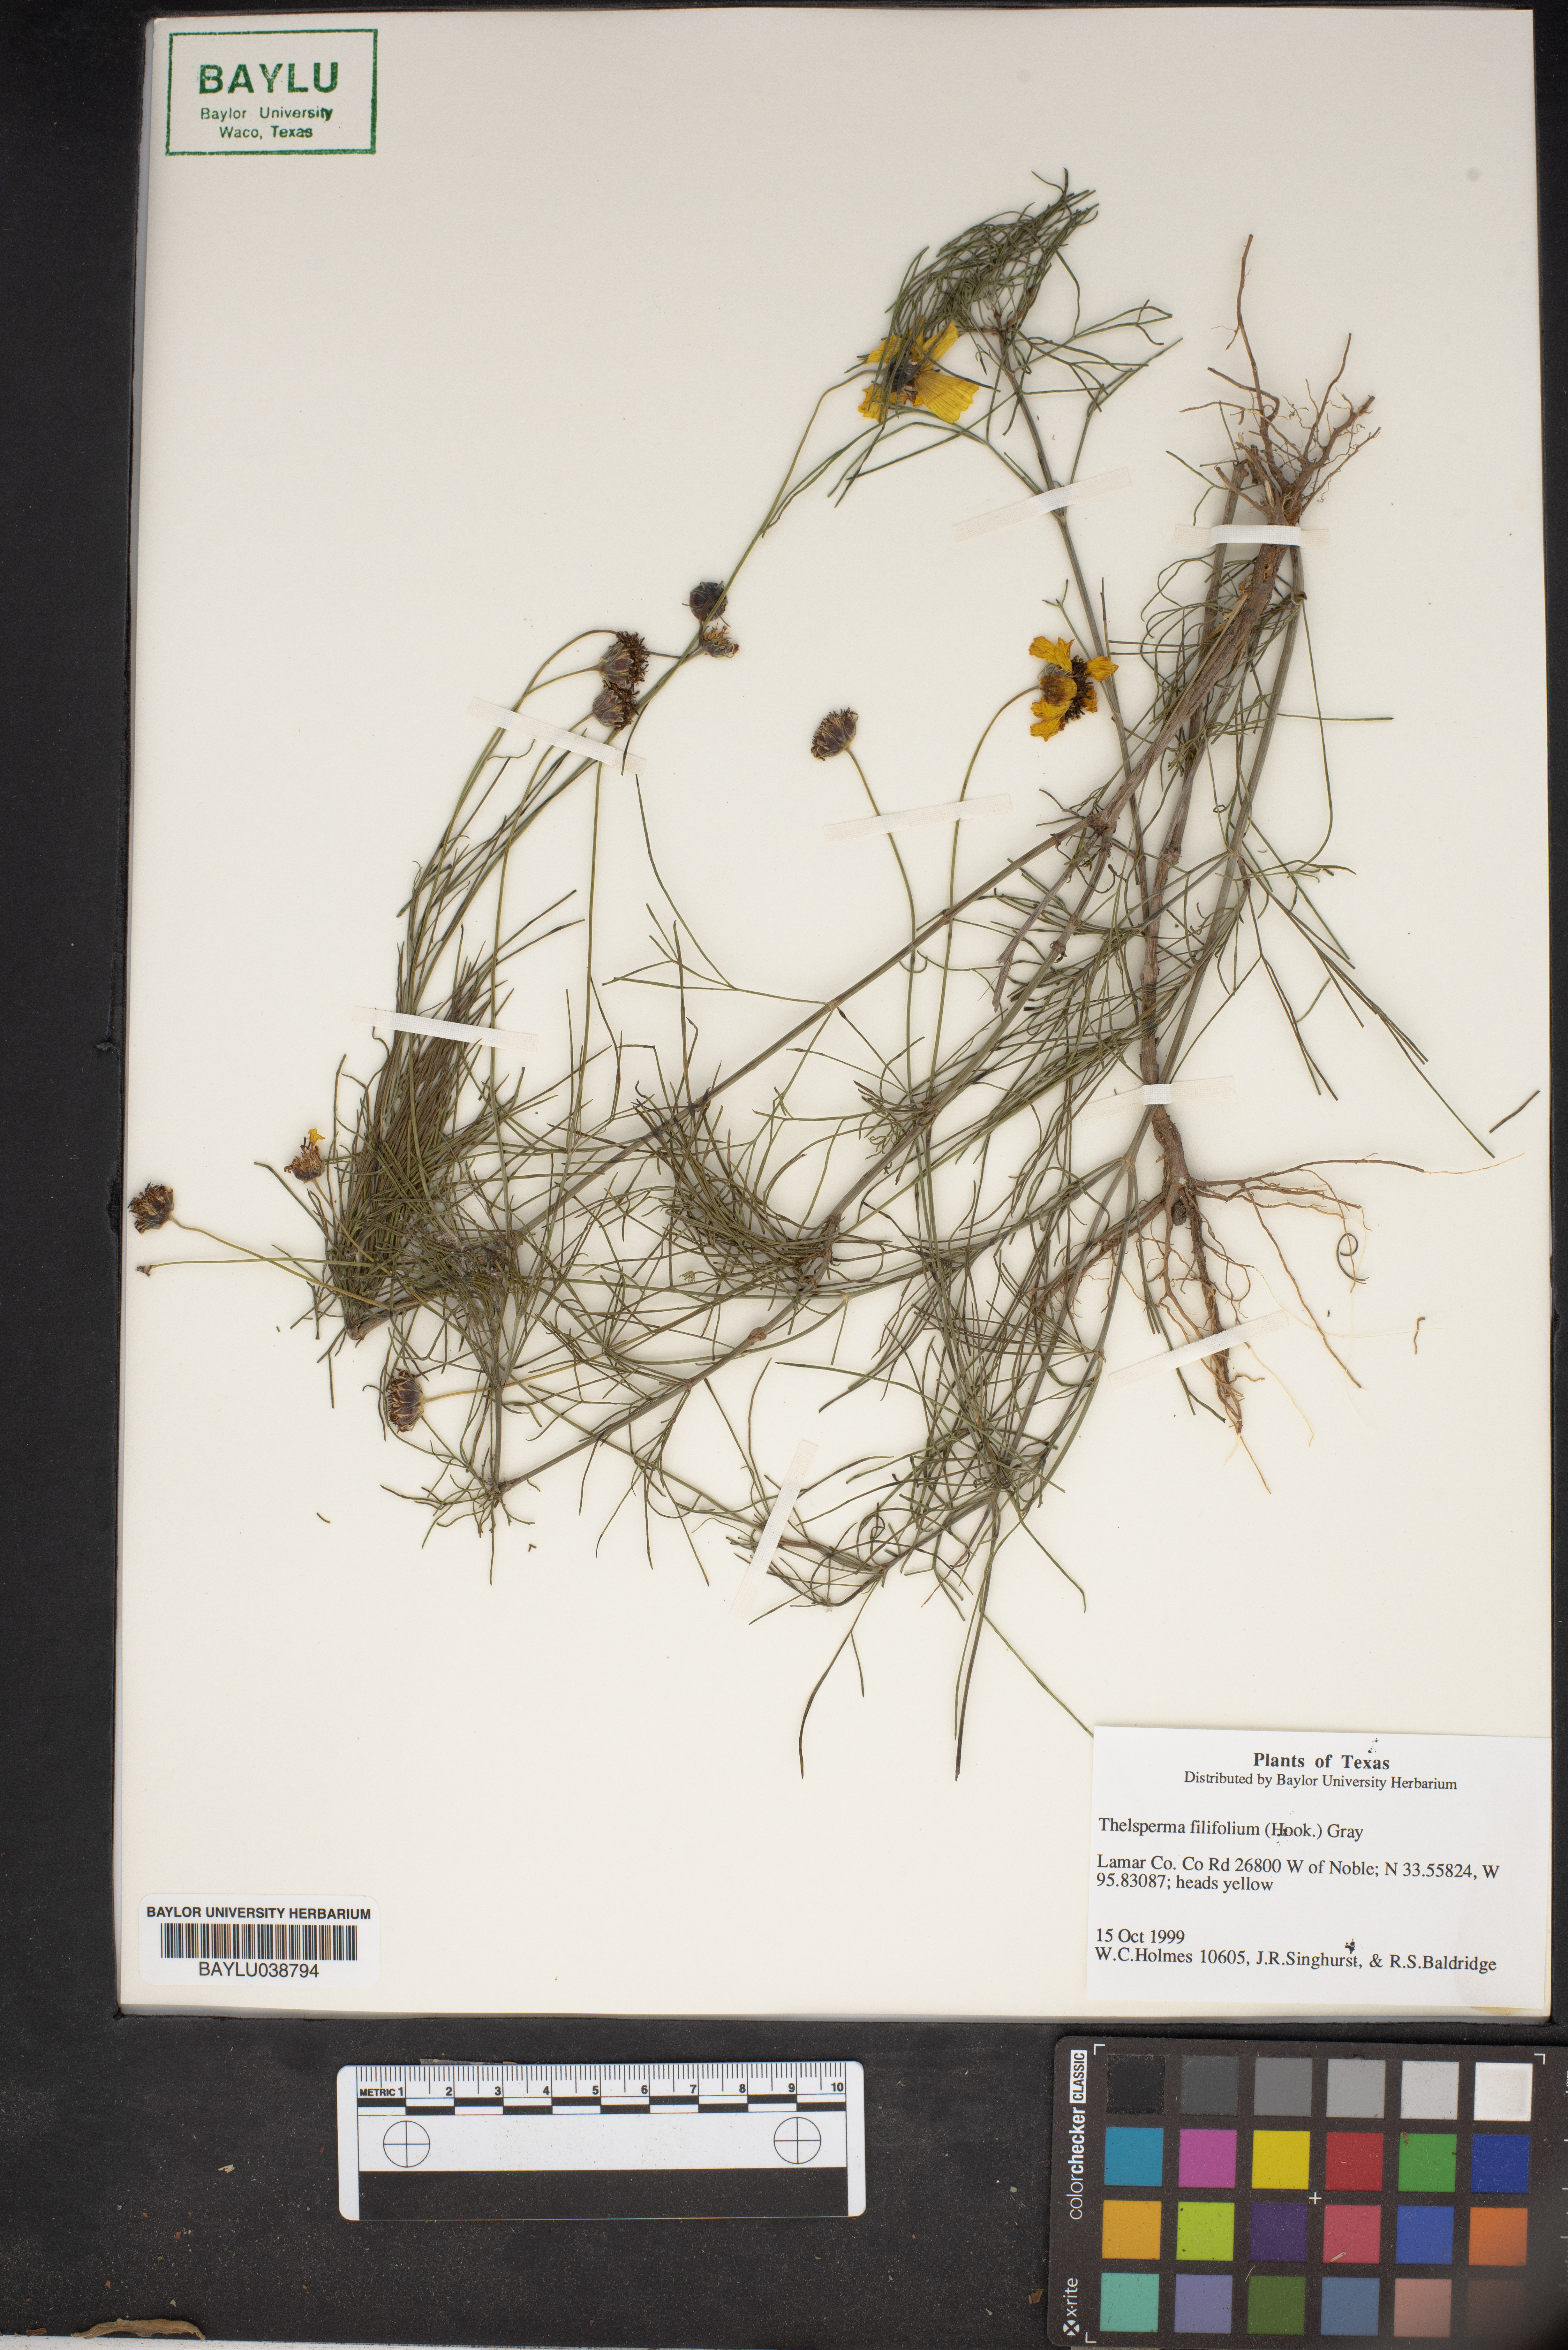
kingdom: Plantae
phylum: Tracheophyta
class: Magnoliopsida
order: Asterales
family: Asteraceae
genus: Thelesperma
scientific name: Thelesperma filifolium
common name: Stiff greenthread
